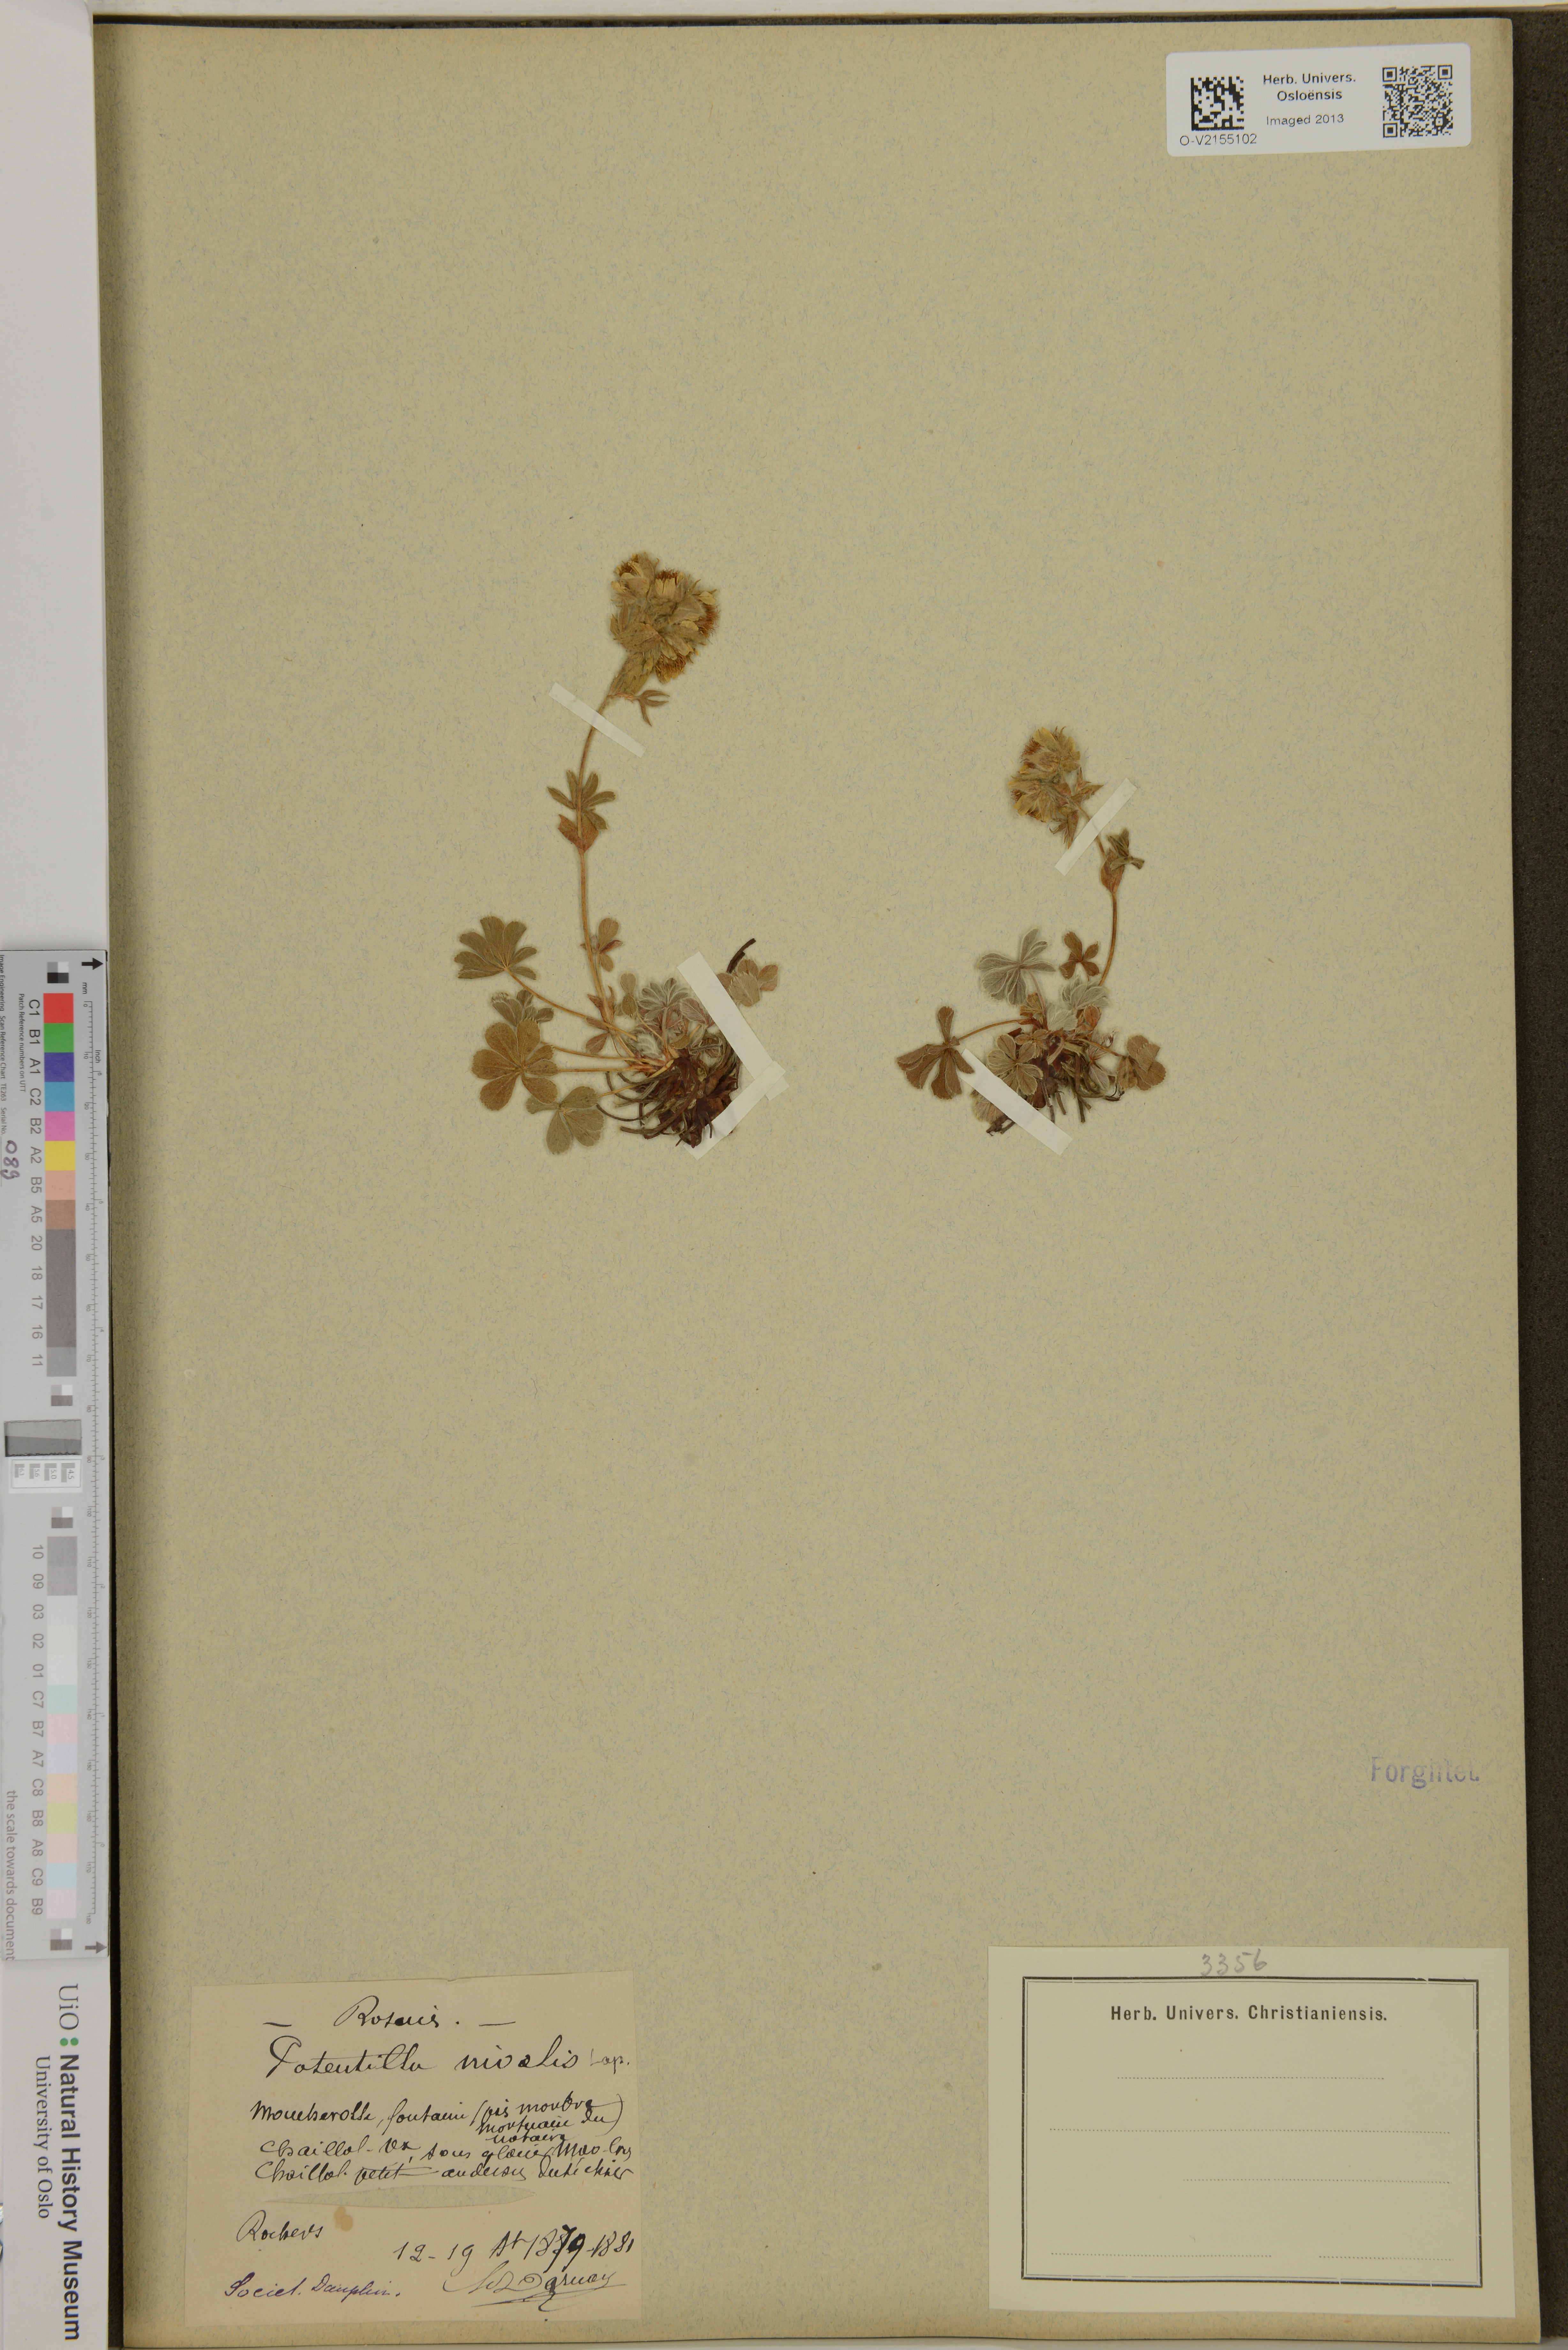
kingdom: Plantae
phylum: Tracheophyta
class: Magnoliopsida
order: Rosales
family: Rosaceae
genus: Potentilla
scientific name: Potentilla nivalis
